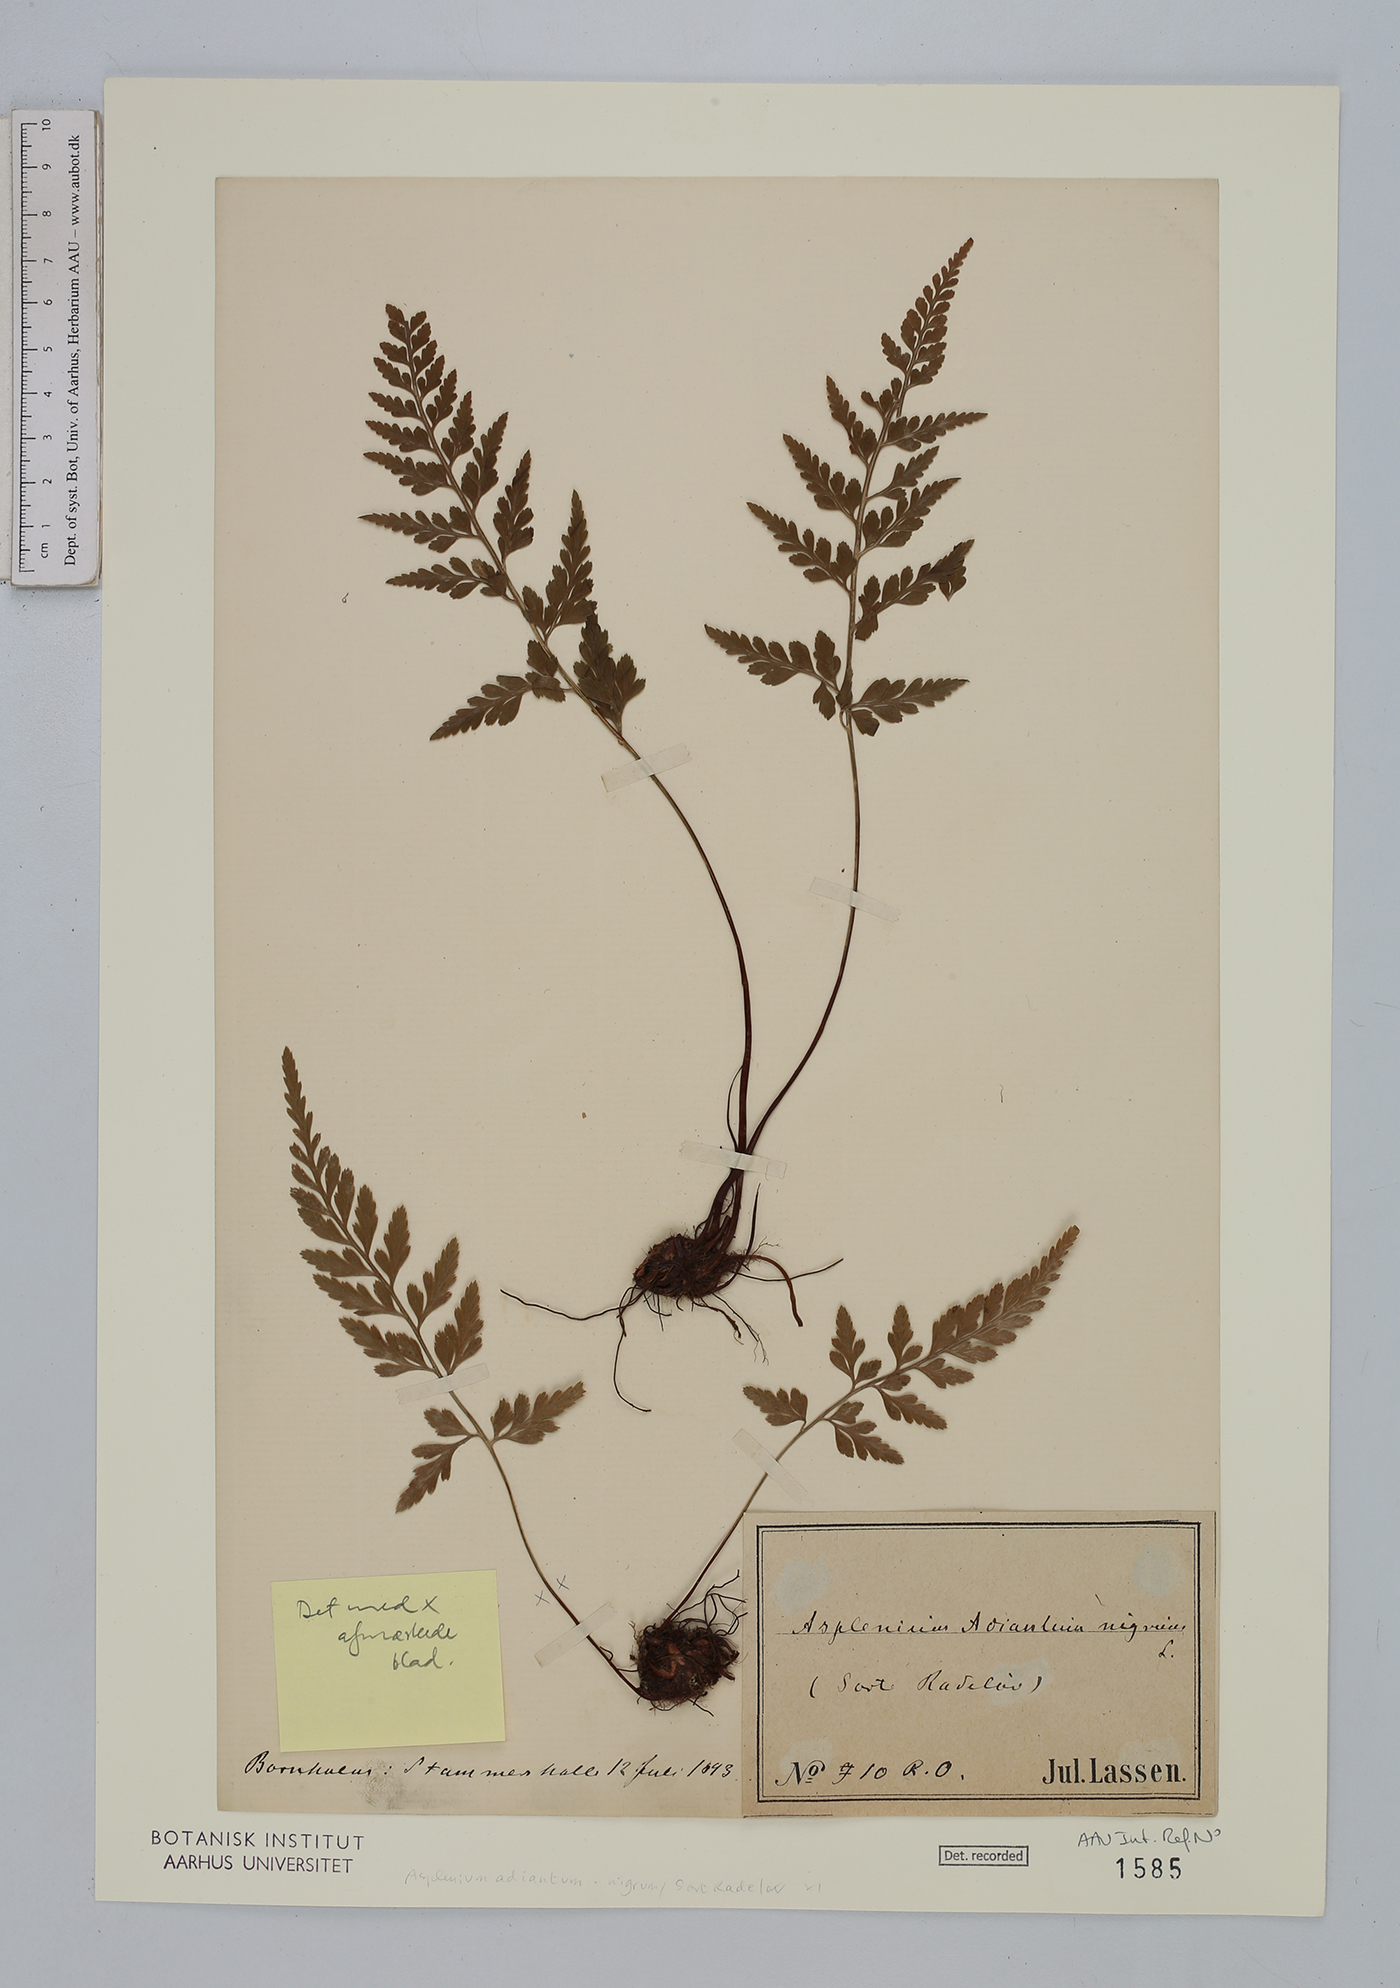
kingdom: Plantae
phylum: Tracheophyta
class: Polypodiopsida
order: Polypodiales
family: Aspleniaceae
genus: Asplenium
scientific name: Asplenium adiantum-nigrum
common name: Black spleenwort
